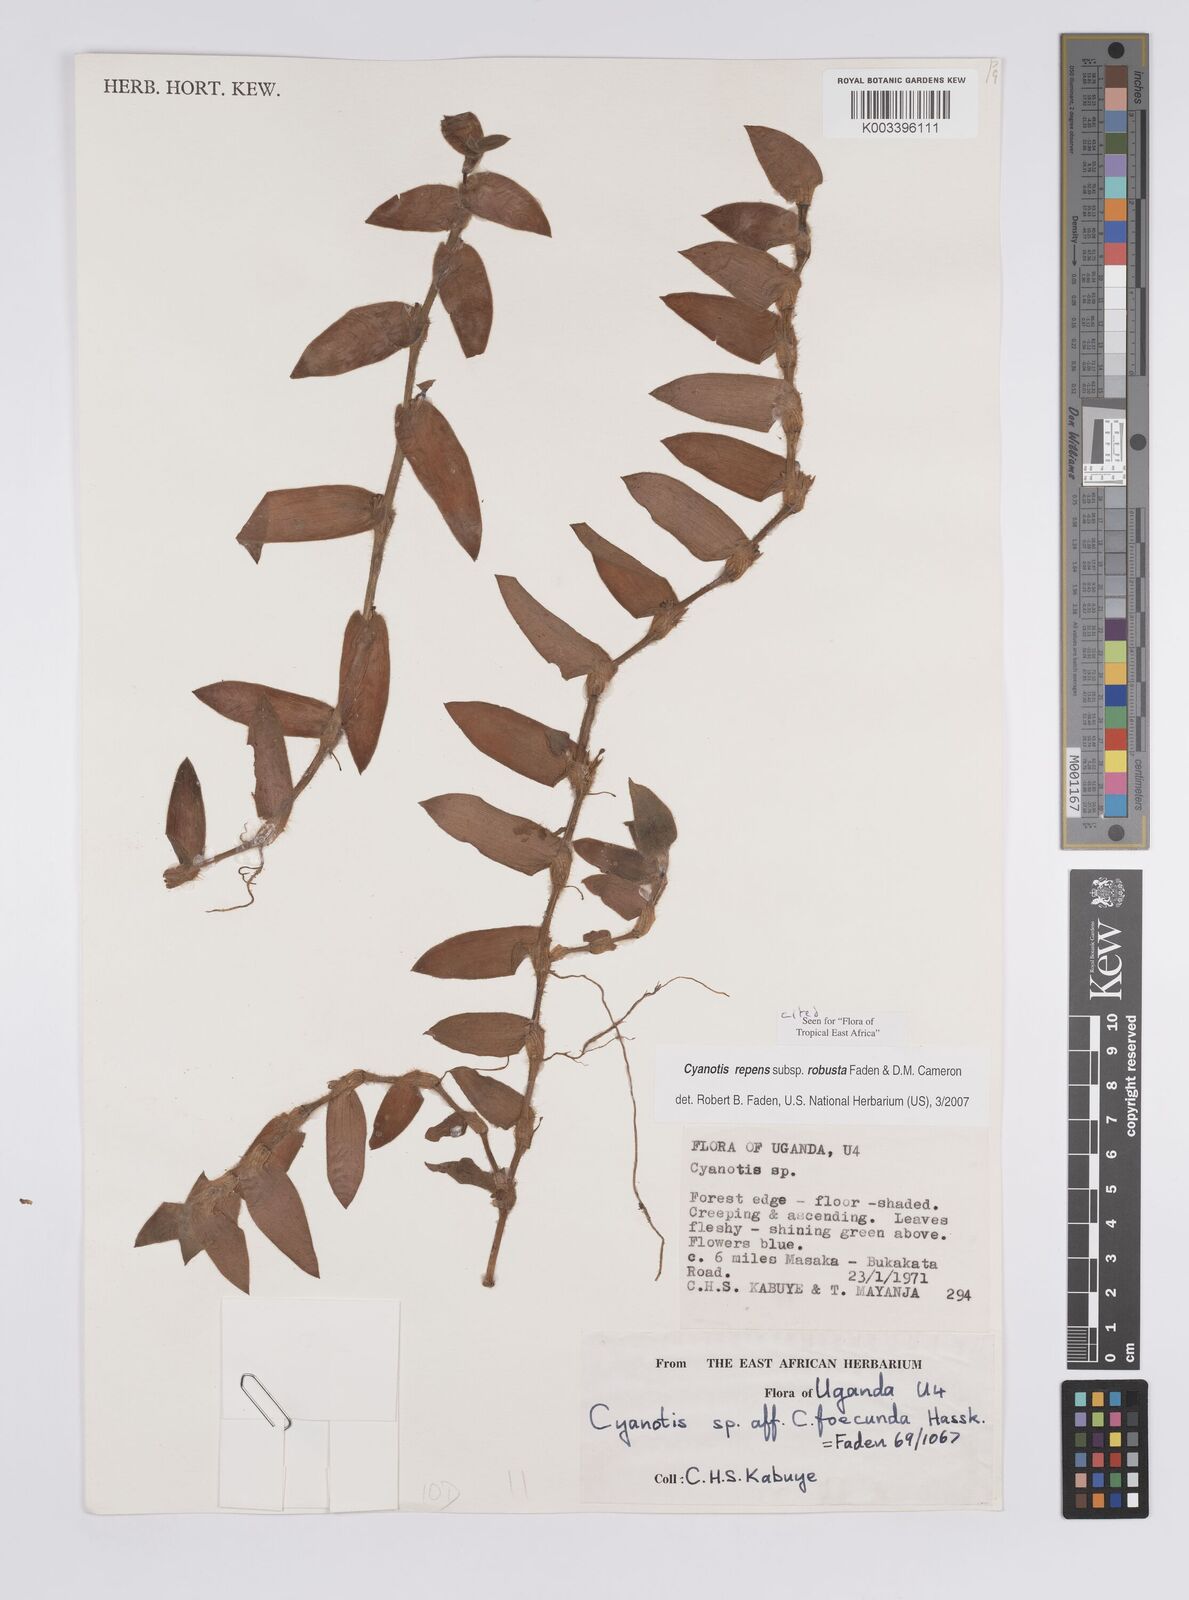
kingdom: Plantae
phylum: Tracheophyta
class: Liliopsida
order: Commelinales
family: Commelinaceae
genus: Cyanotis
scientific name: Cyanotis repens
